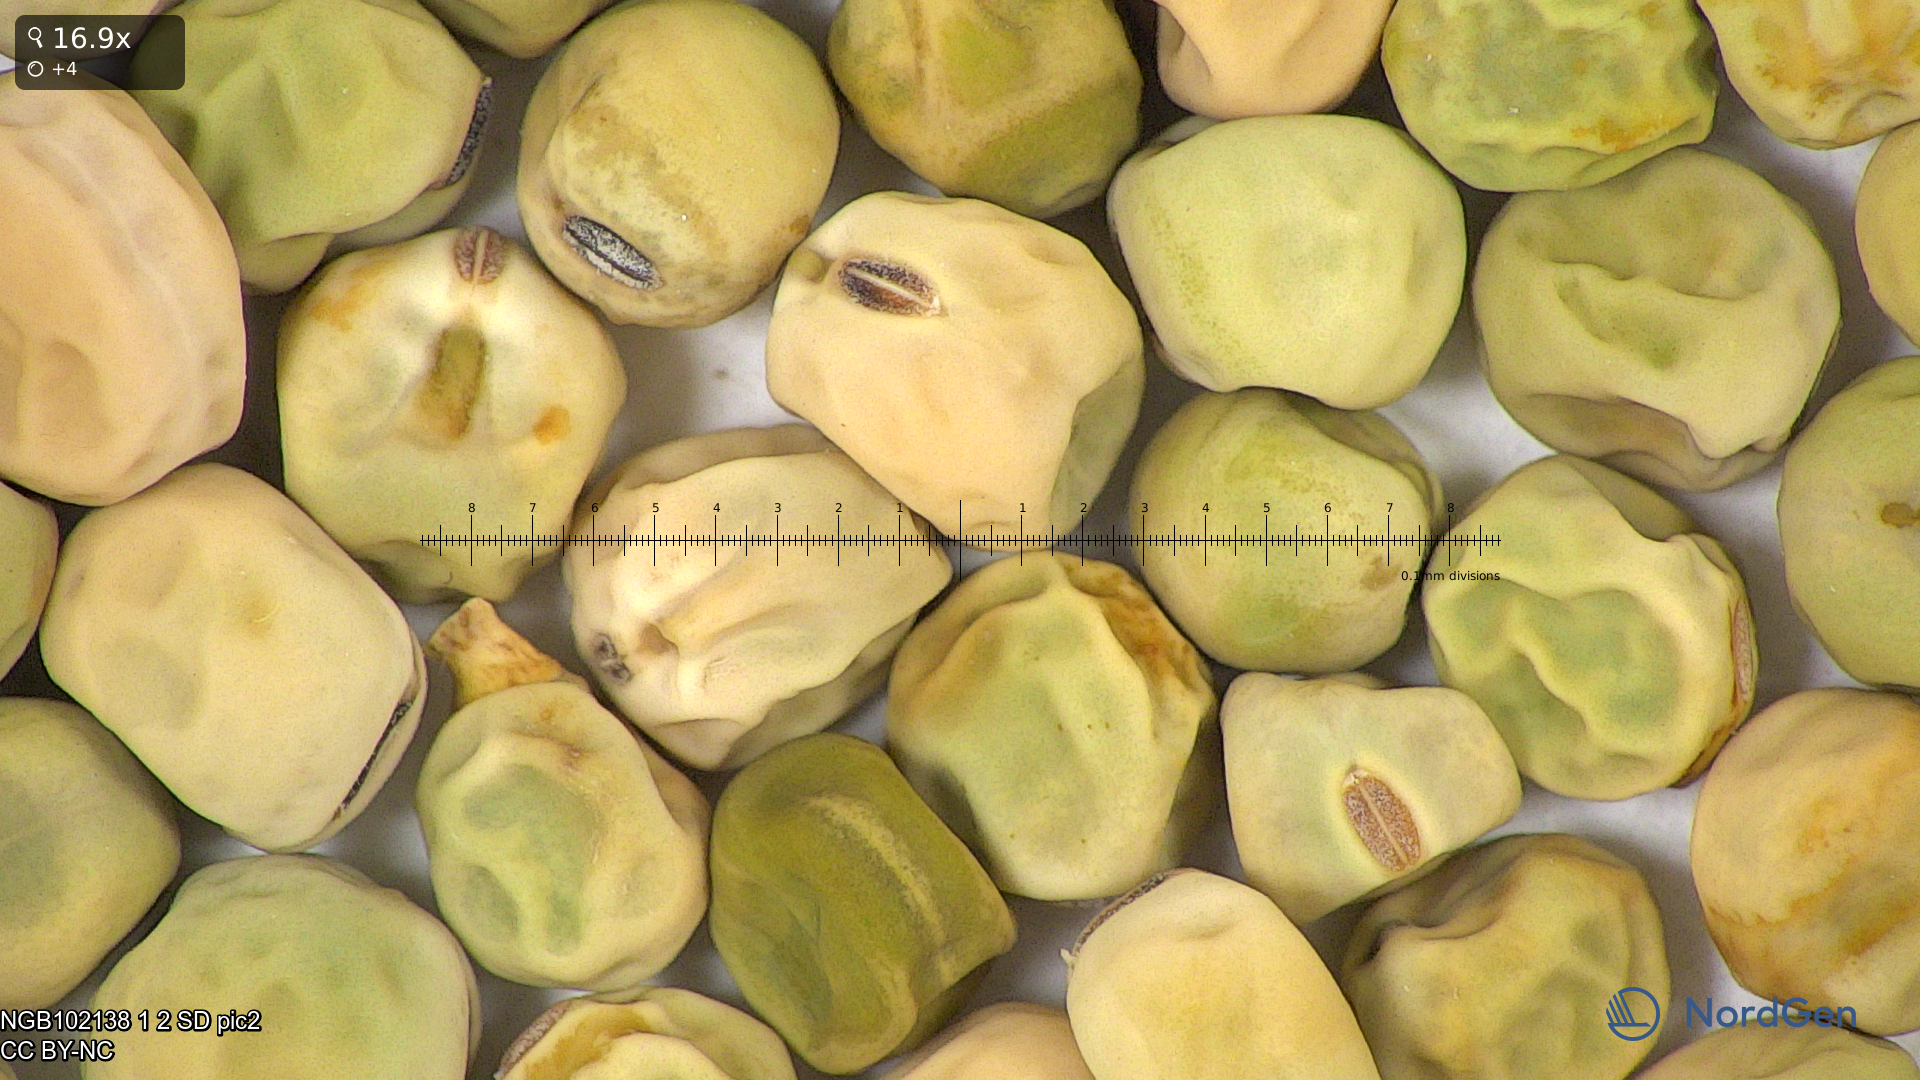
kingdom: Plantae
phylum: Tracheophyta
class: Magnoliopsida
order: Fabales
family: Fabaceae
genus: Lathyrus
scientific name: Lathyrus oleraceus
